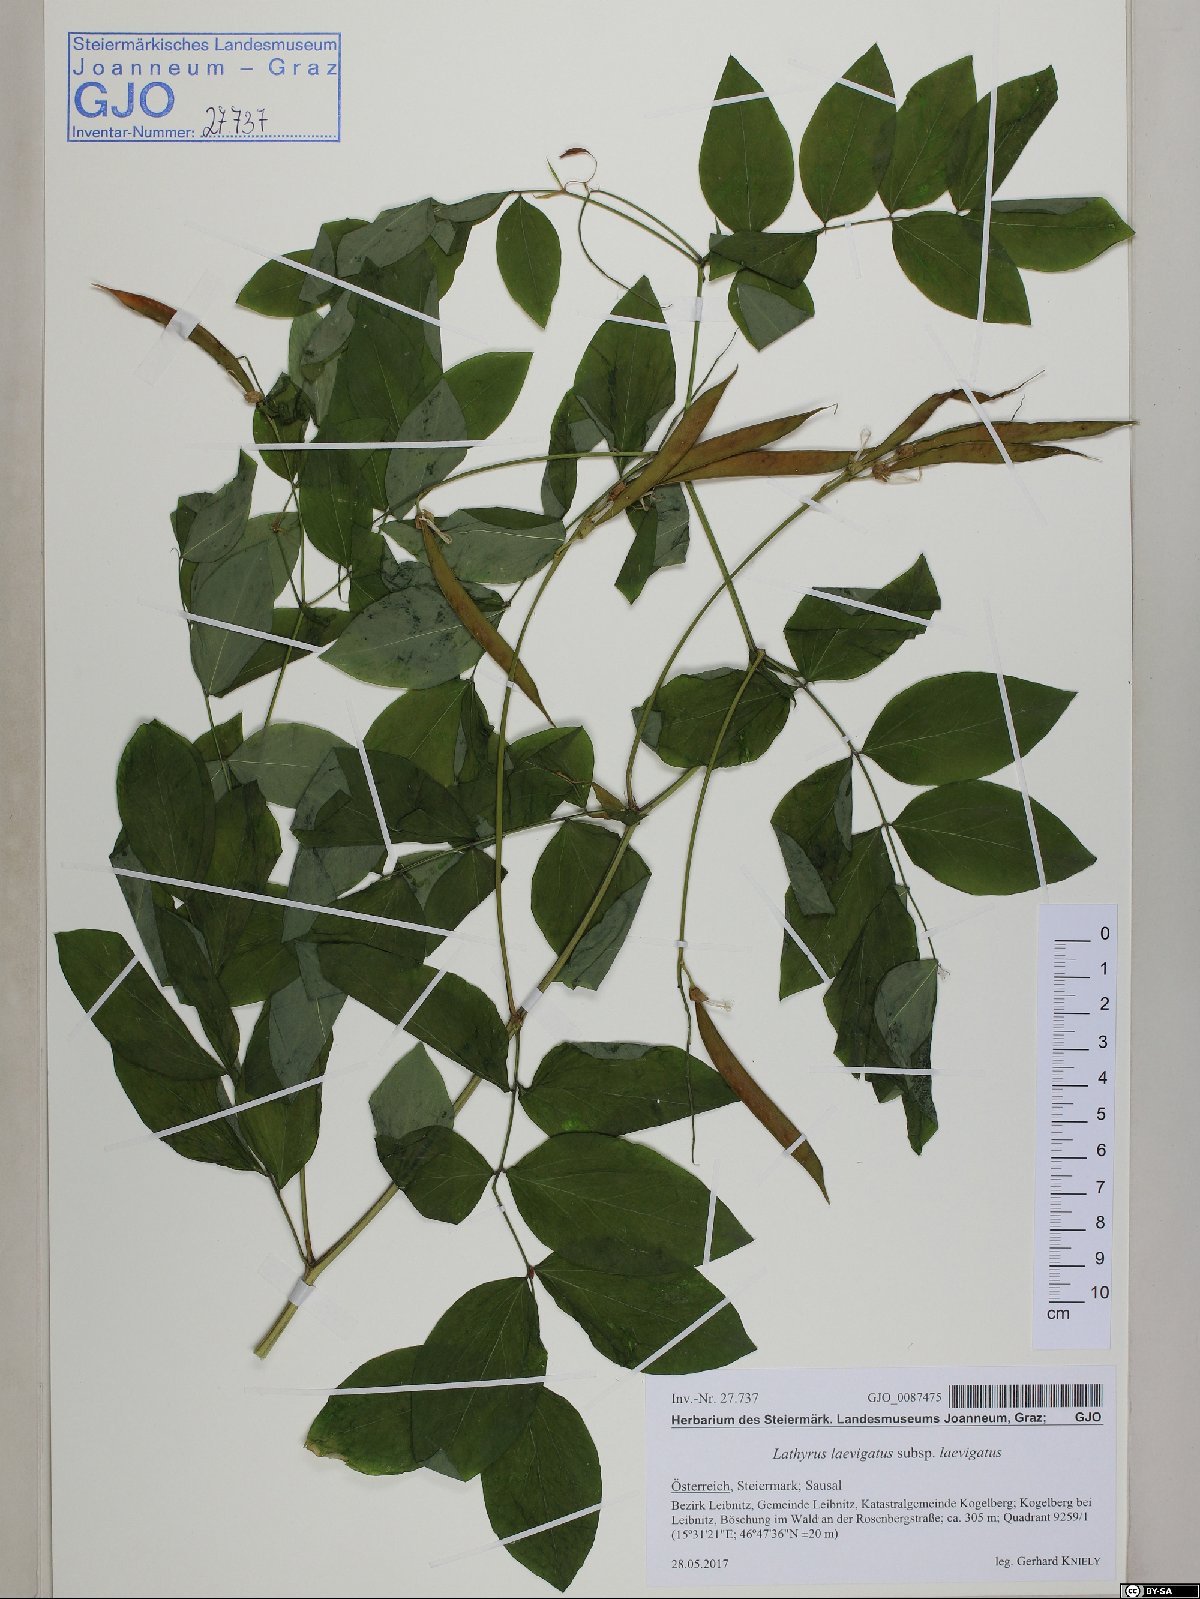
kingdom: Plantae
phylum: Tracheophyta
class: Magnoliopsida
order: Fabales
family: Fabaceae
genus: Lathyrus
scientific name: Lathyrus laevigatus
